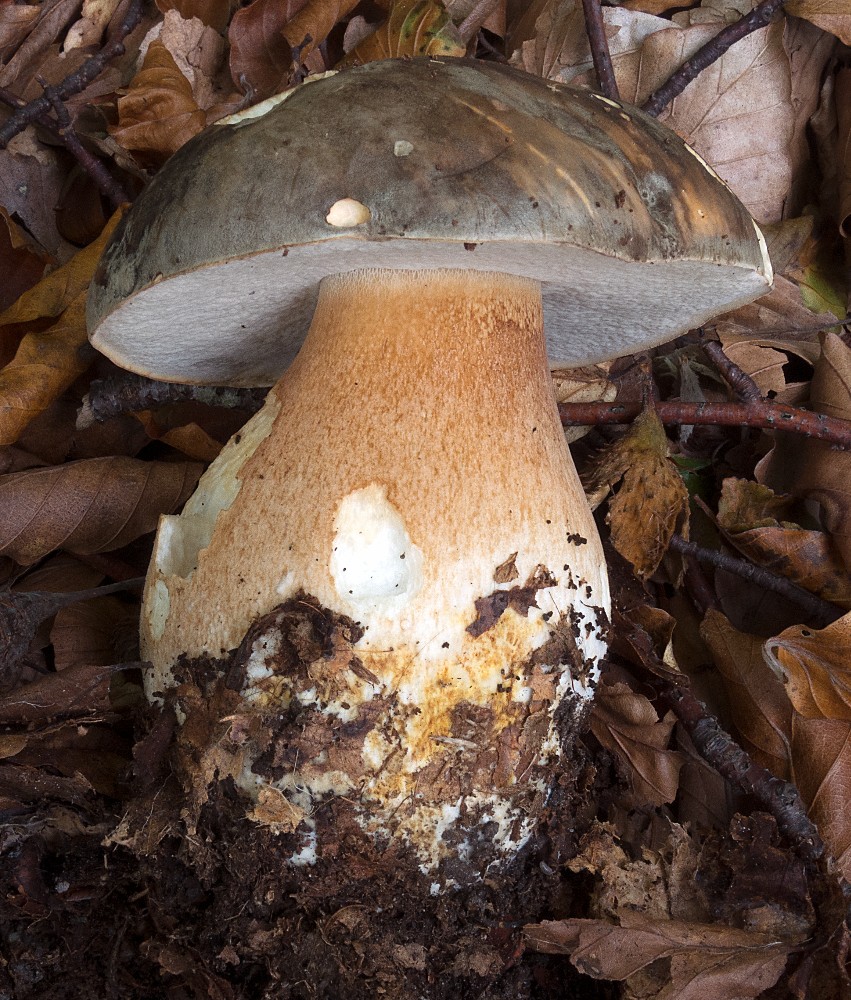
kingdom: Fungi
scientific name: Fungi
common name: bronze-rørhat
